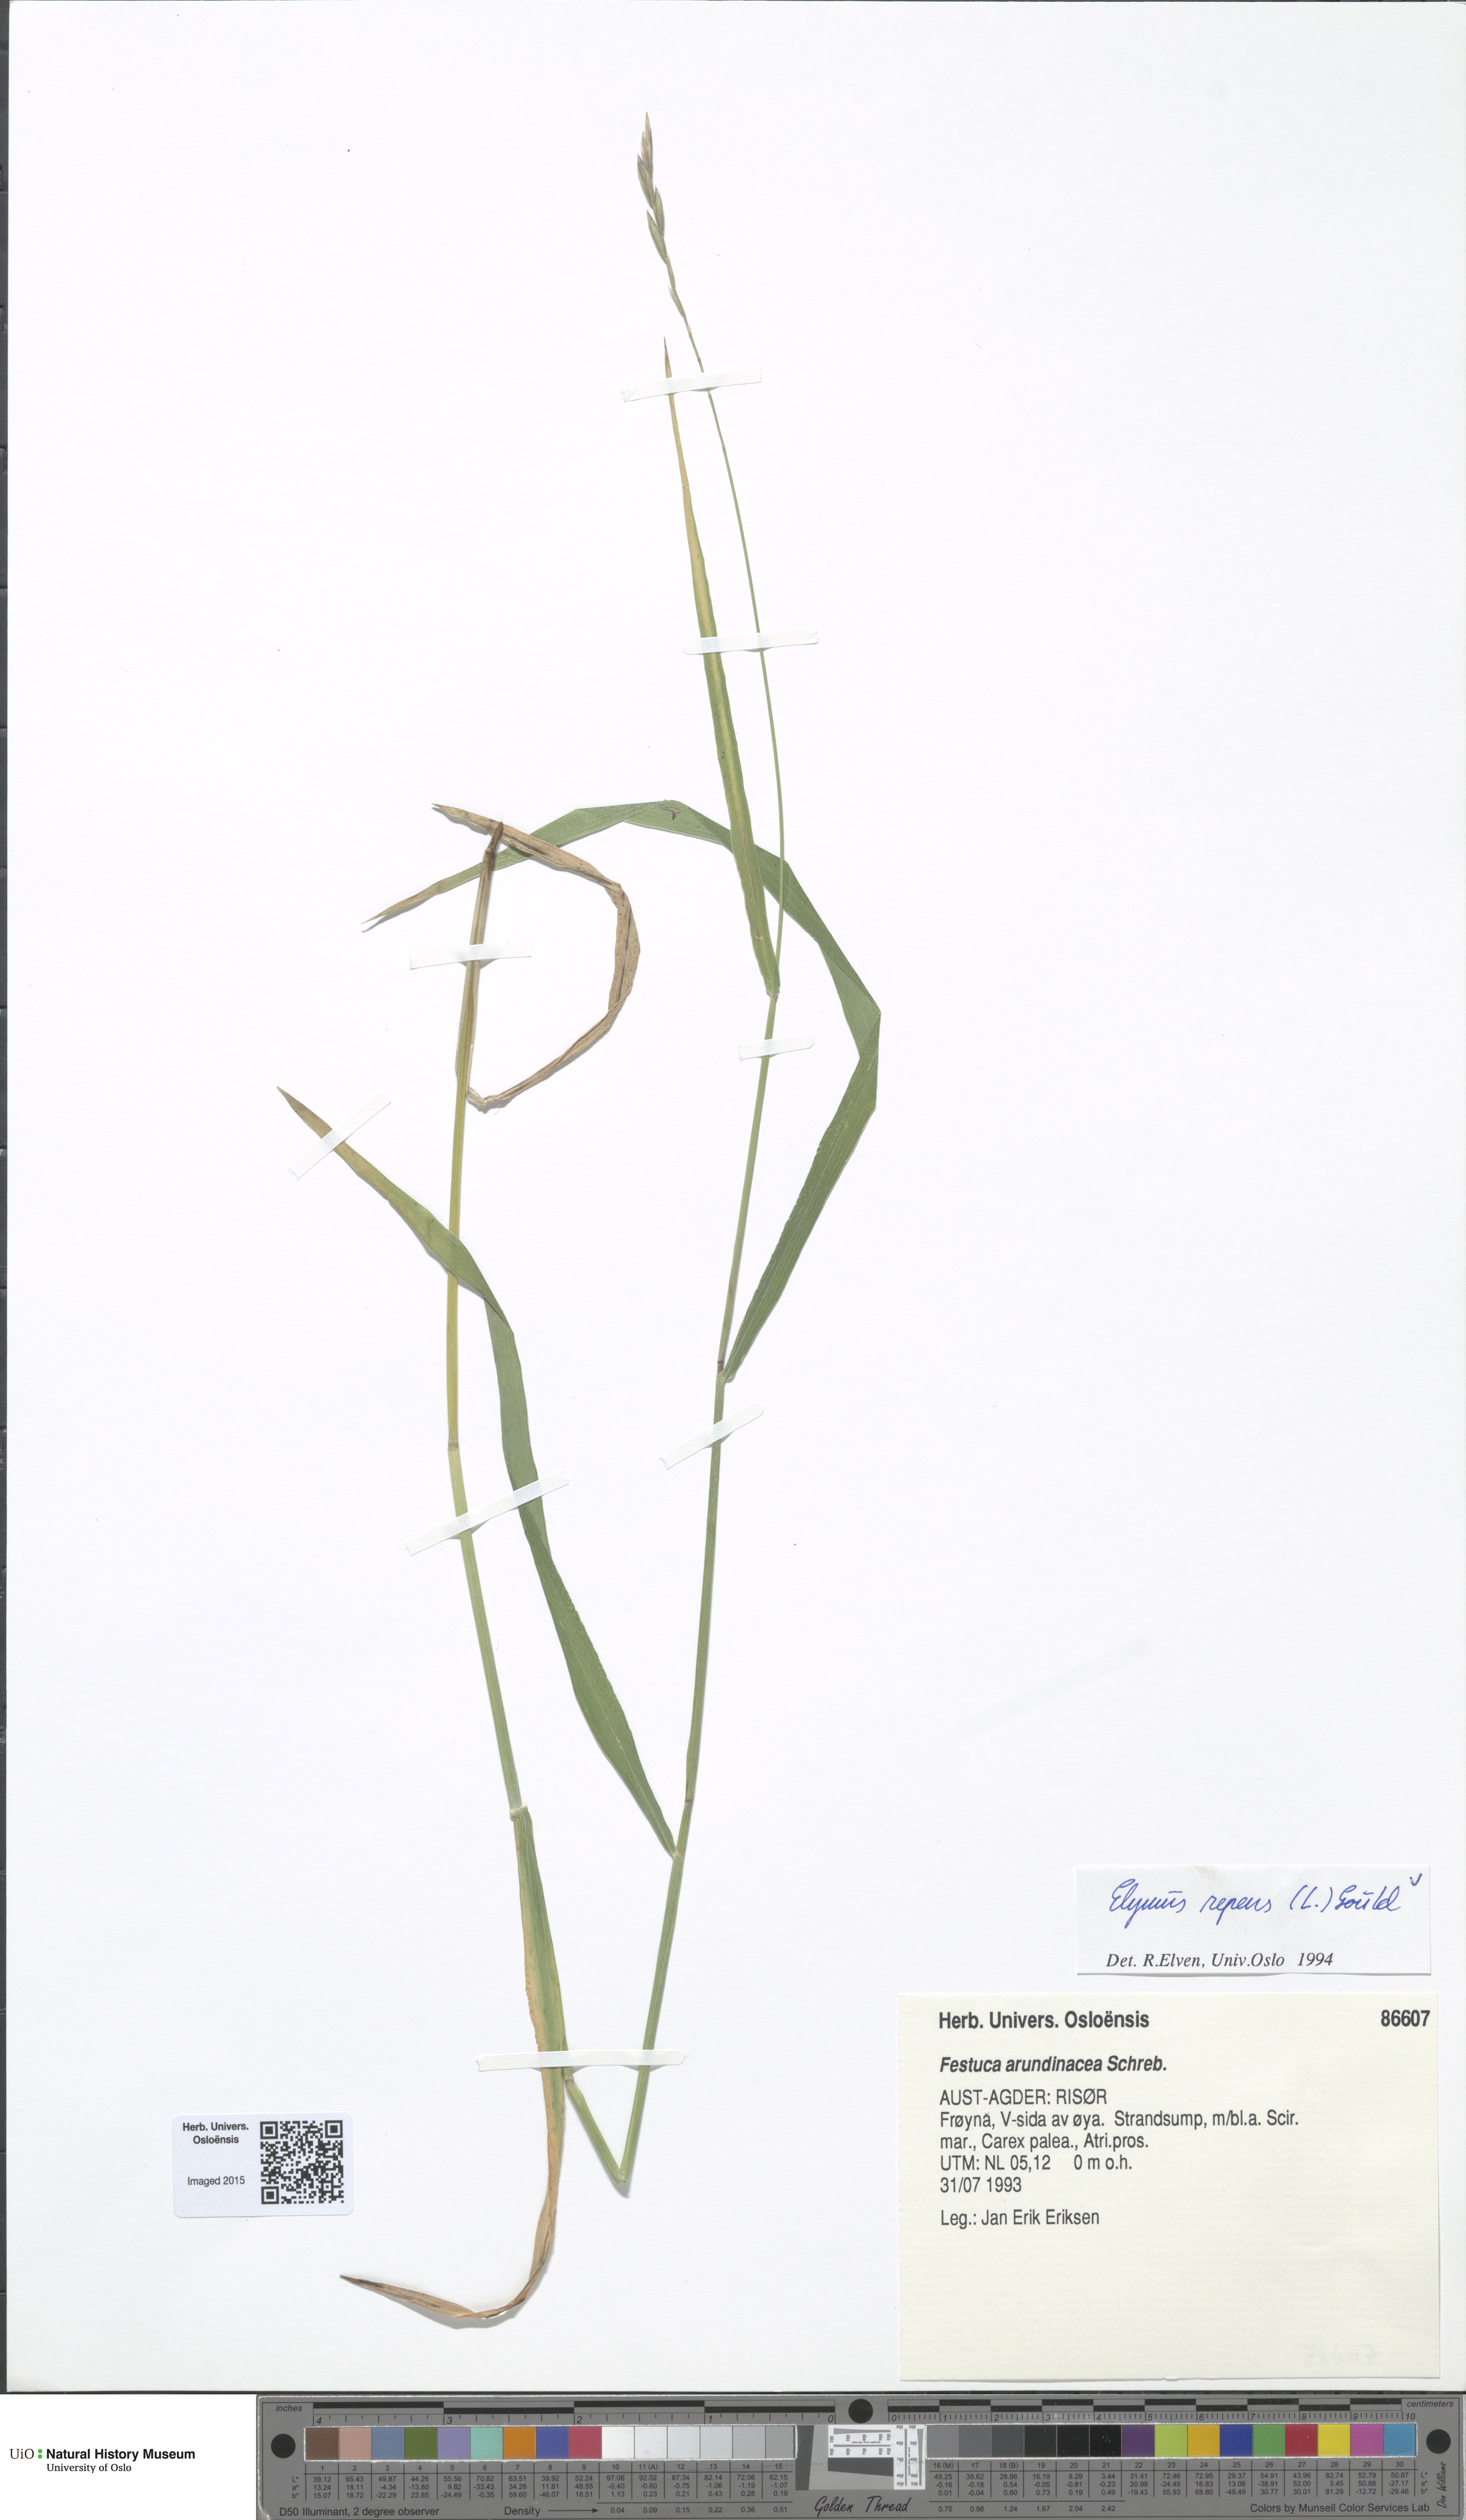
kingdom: Plantae
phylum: Tracheophyta
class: Liliopsida
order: Poales
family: Poaceae
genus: Elymus
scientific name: Elymus repens
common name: Quackgrass
